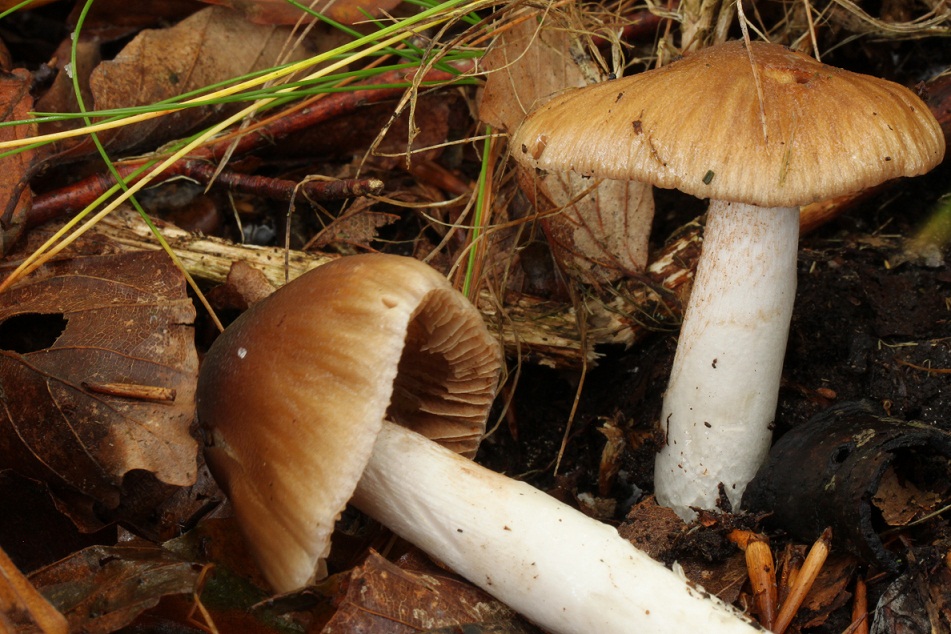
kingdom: Fungi
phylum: Basidiomycota
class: Agaricomycetes
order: Agaricales
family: Cortinariaceae
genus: Cortinarius
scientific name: Cortinarius elatior
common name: høj slørhat
